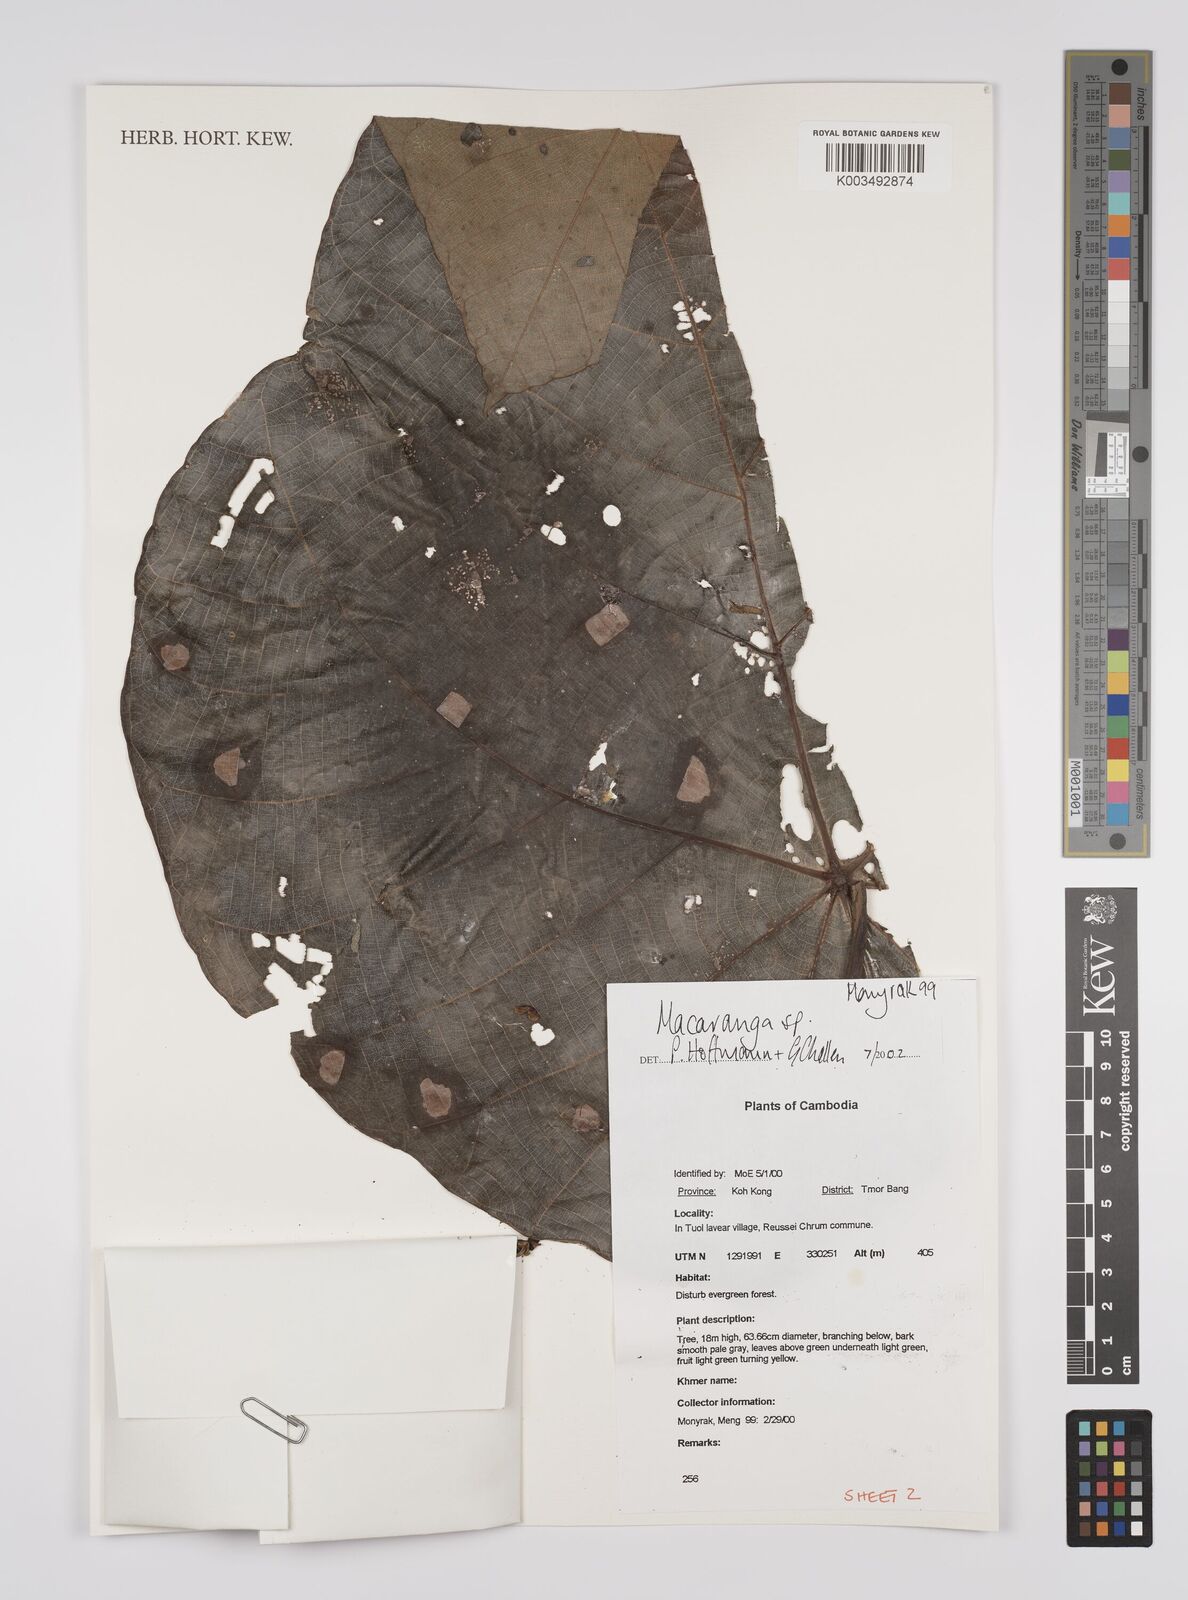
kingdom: Plantae
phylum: Tracheophyta
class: Magnoliopsida
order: Malpighiales
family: Euphorbiaceae
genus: Macaranga
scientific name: Macaranga
